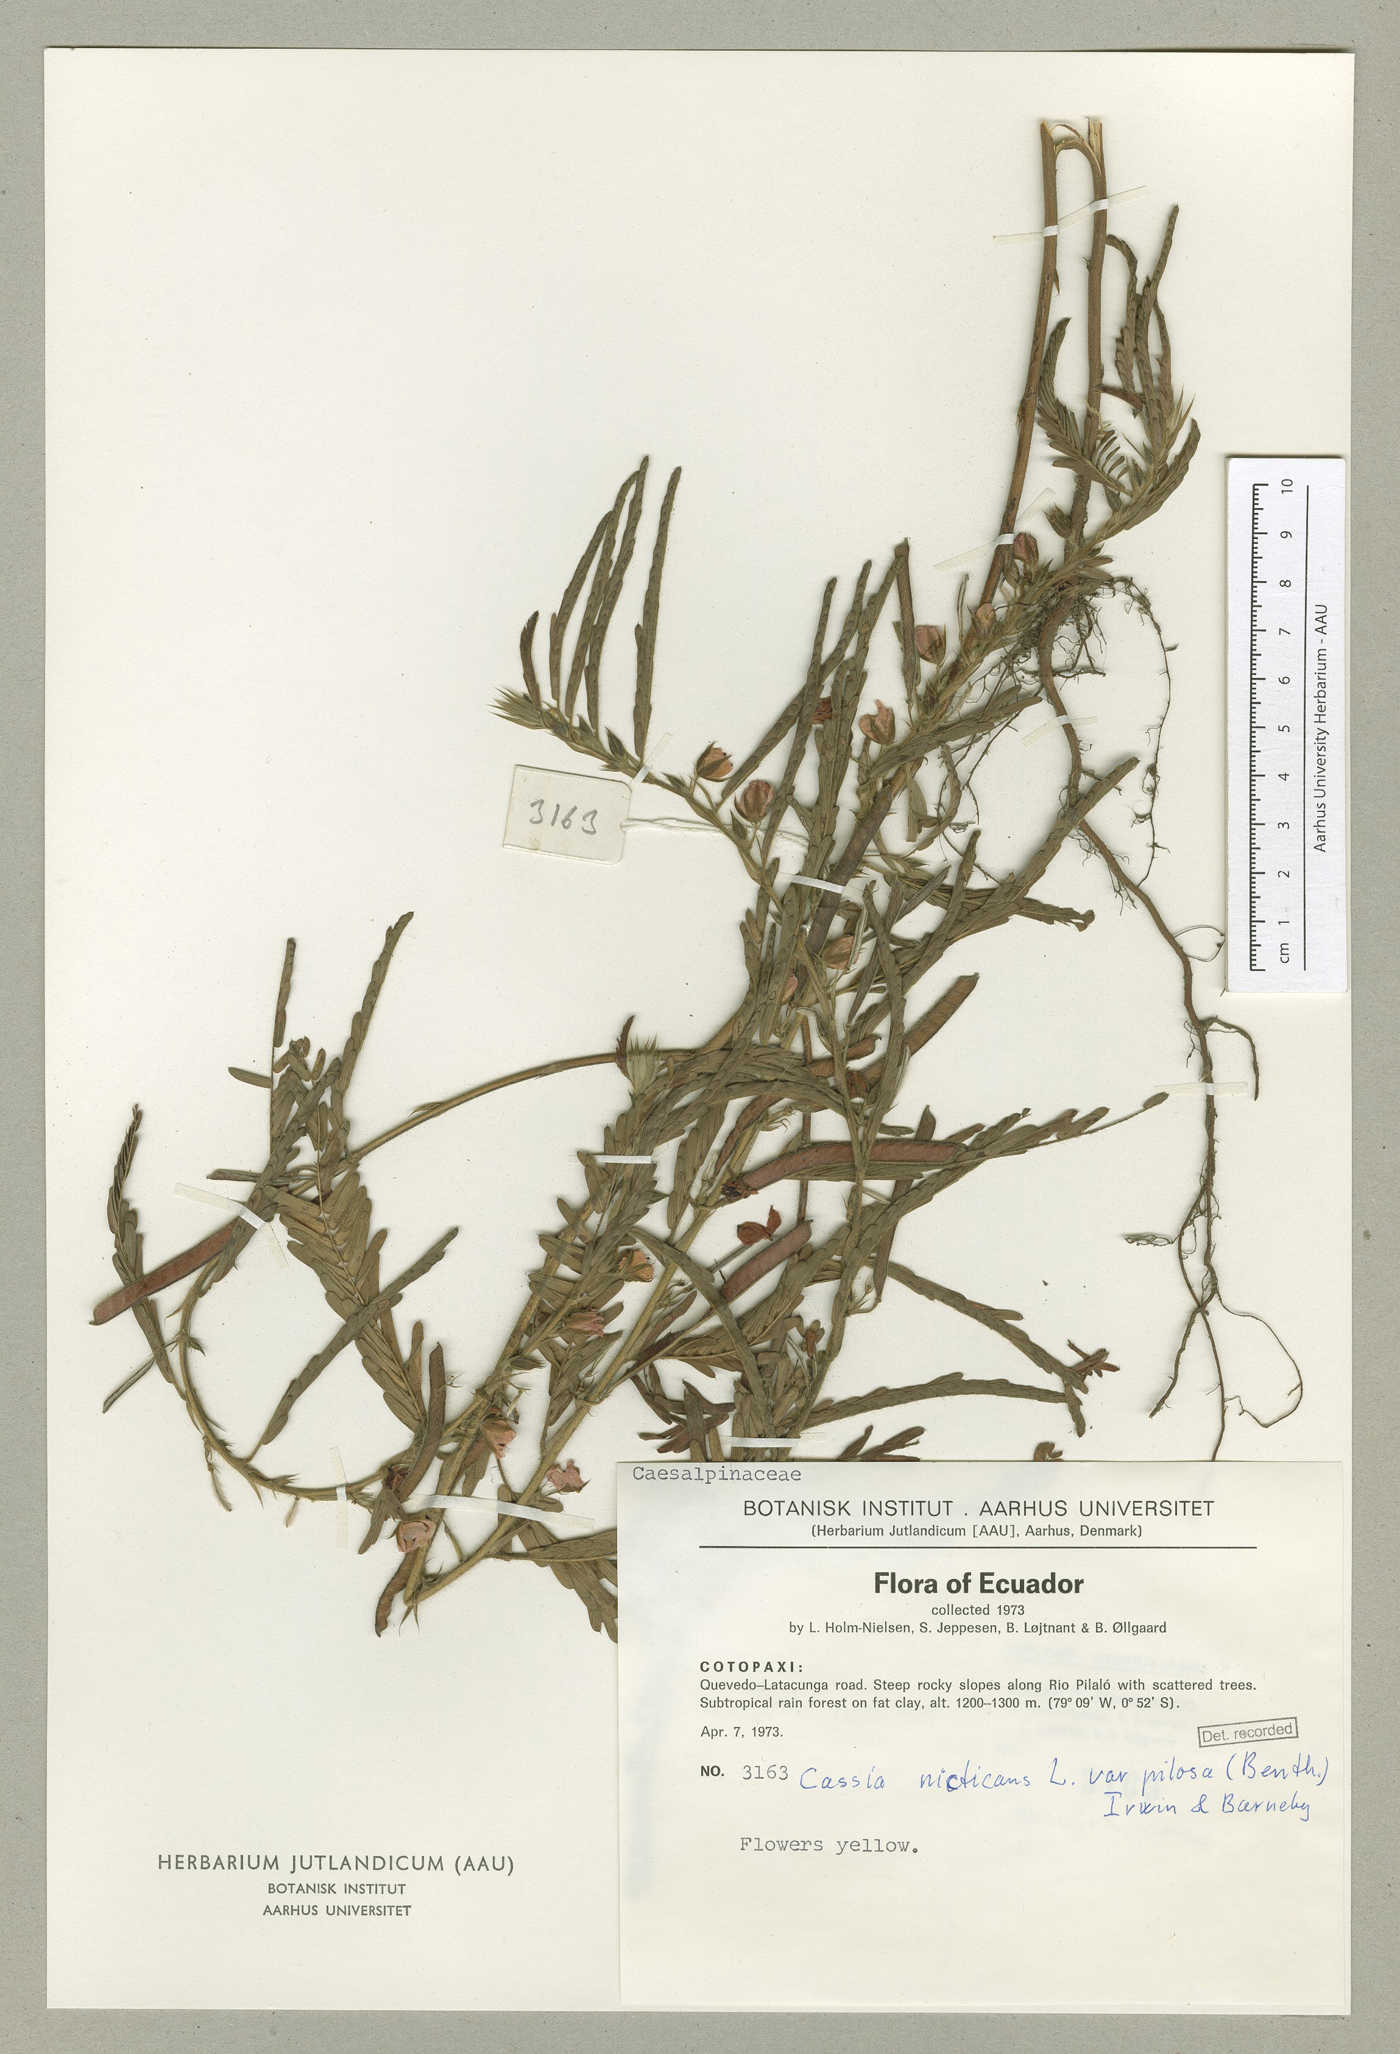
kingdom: Plantae
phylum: Tracheophyta
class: Magnoliopsida
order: Fabales
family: Fabaceae
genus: Chamaecrista
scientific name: Chamaecrista nictitans
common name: Sensitive cassia
